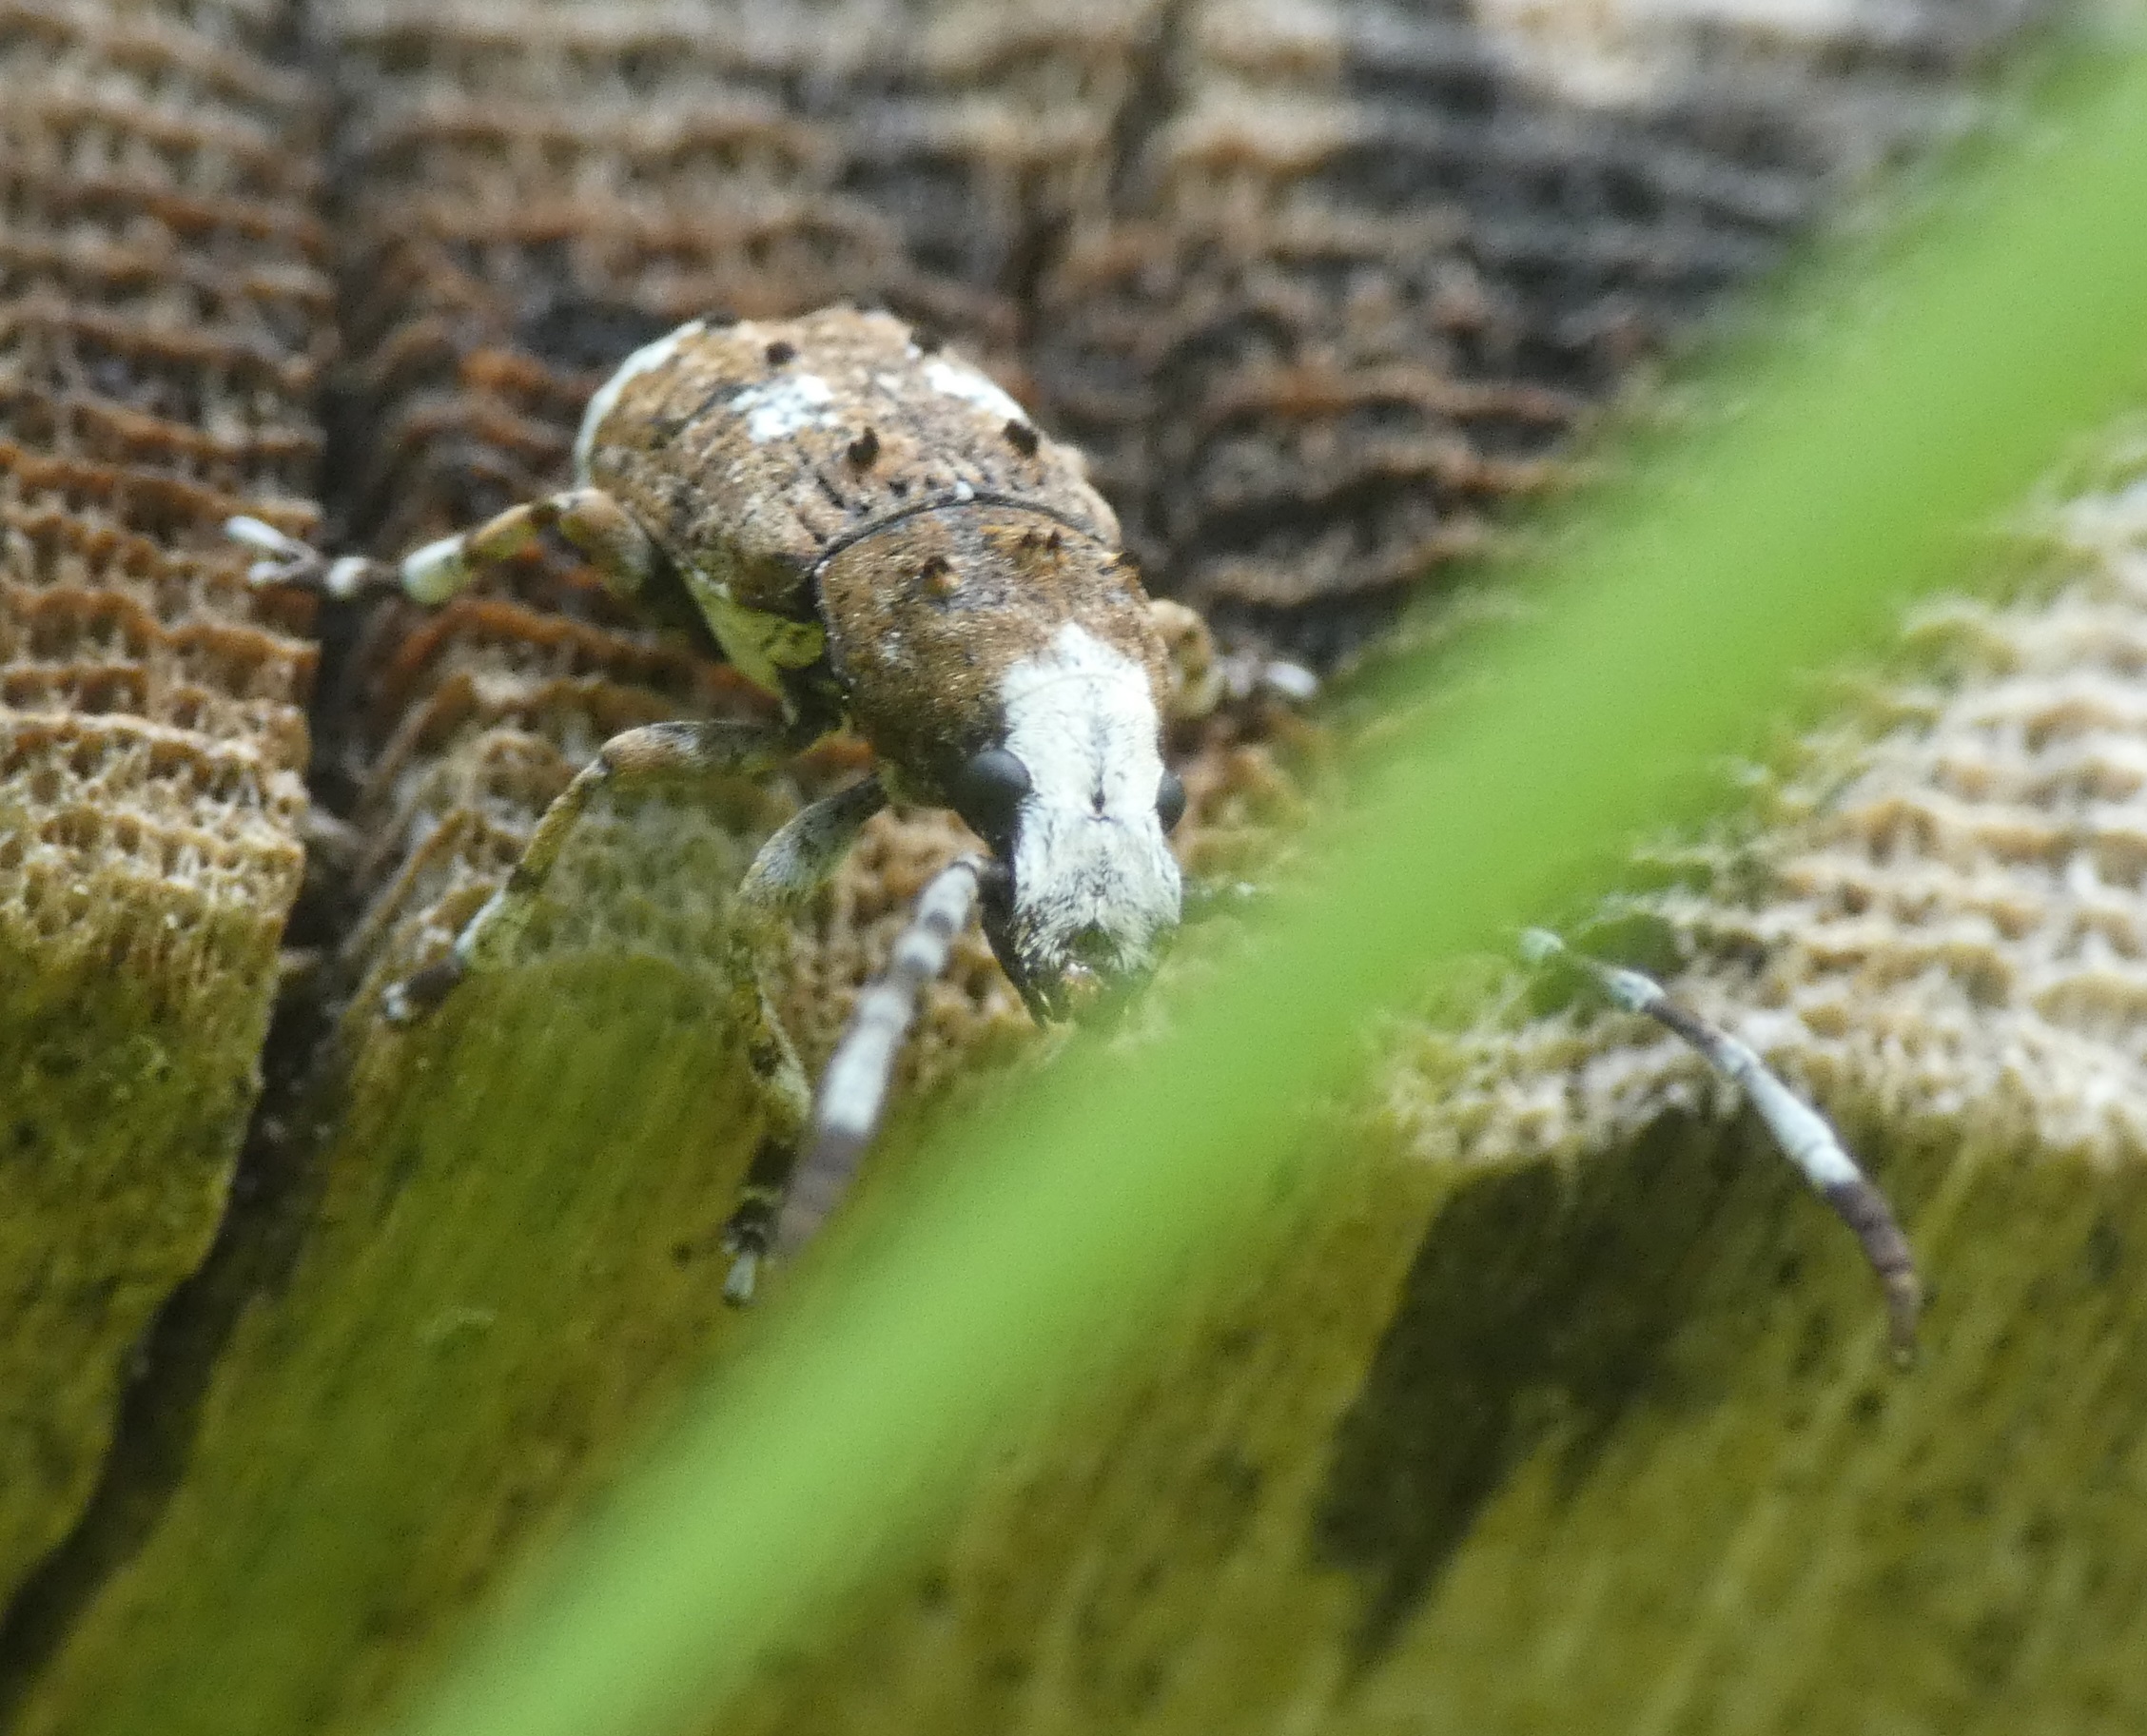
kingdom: Animalia
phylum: Arthropoda
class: Insecta
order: Coleoptera
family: Anthribidae
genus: Platystomos
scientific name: Platystomos albinus
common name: Hvidhovedet bredsnudebille
